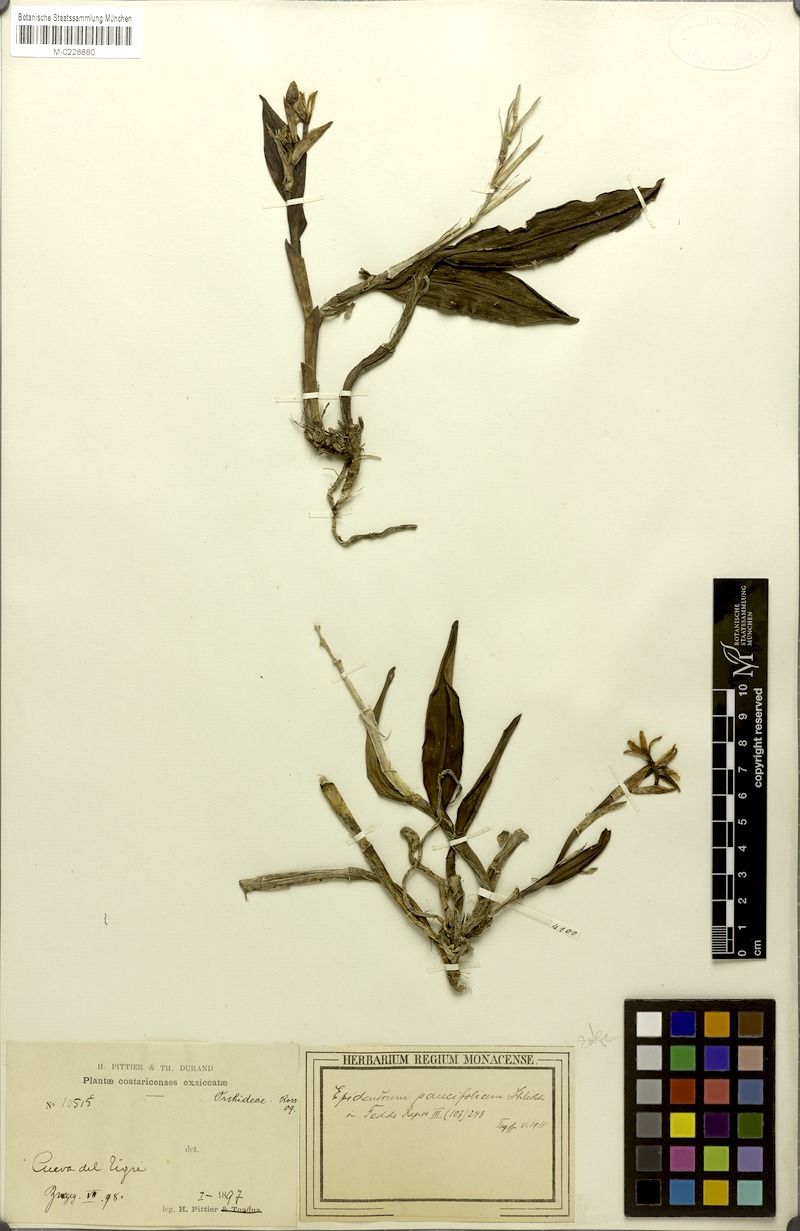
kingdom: Plantae
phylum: Tracheophyta
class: Liliopsida
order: Asparagales
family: Orchidaceae
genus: Epidendrum
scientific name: Epidendrum paucifolium
